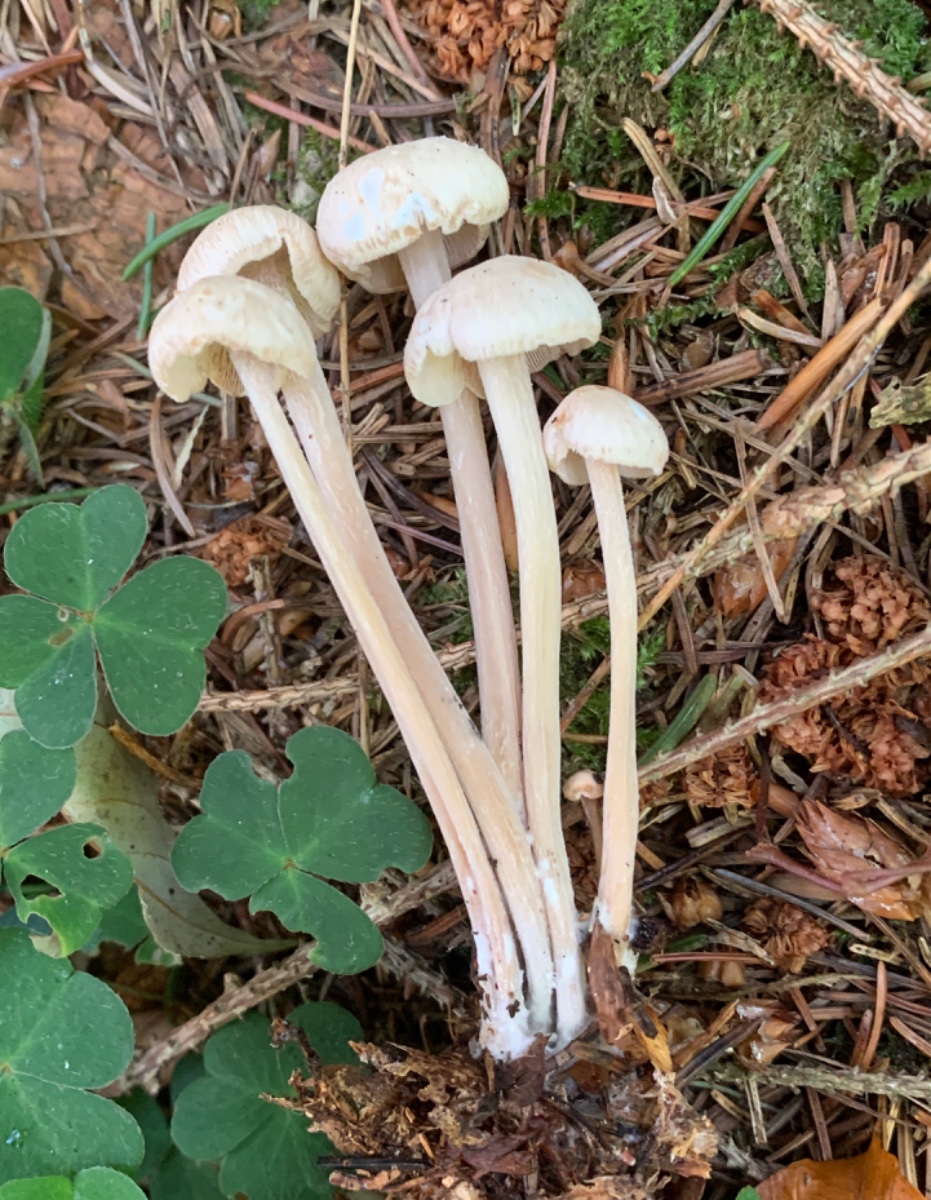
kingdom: Fungi
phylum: Basidiomycota
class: Agaricomycetes
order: Agaricales
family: Omphalotaceae
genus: Collybiopsis
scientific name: Collybiopsis confluens
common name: knippe-fladhat
